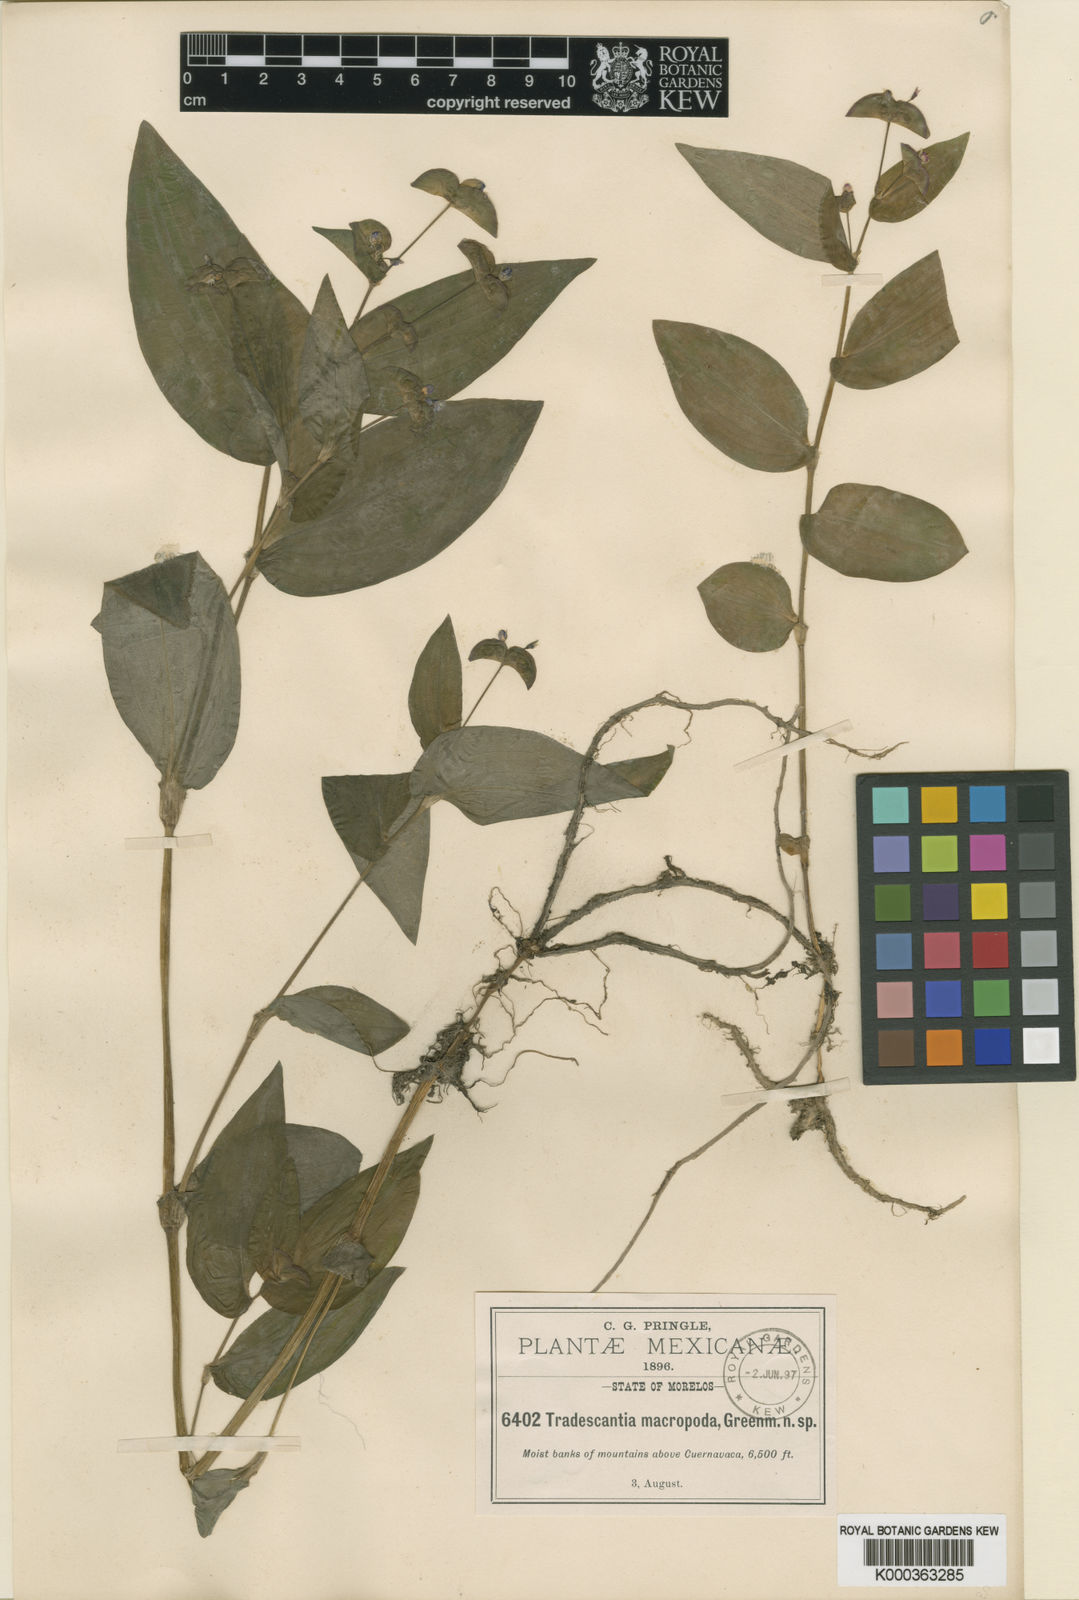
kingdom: Plantae
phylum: Tracheophyta
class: Liliopsida
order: Commelinales
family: Commelinaceae
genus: Tradescantia
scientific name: Tradescantia commelinoides
